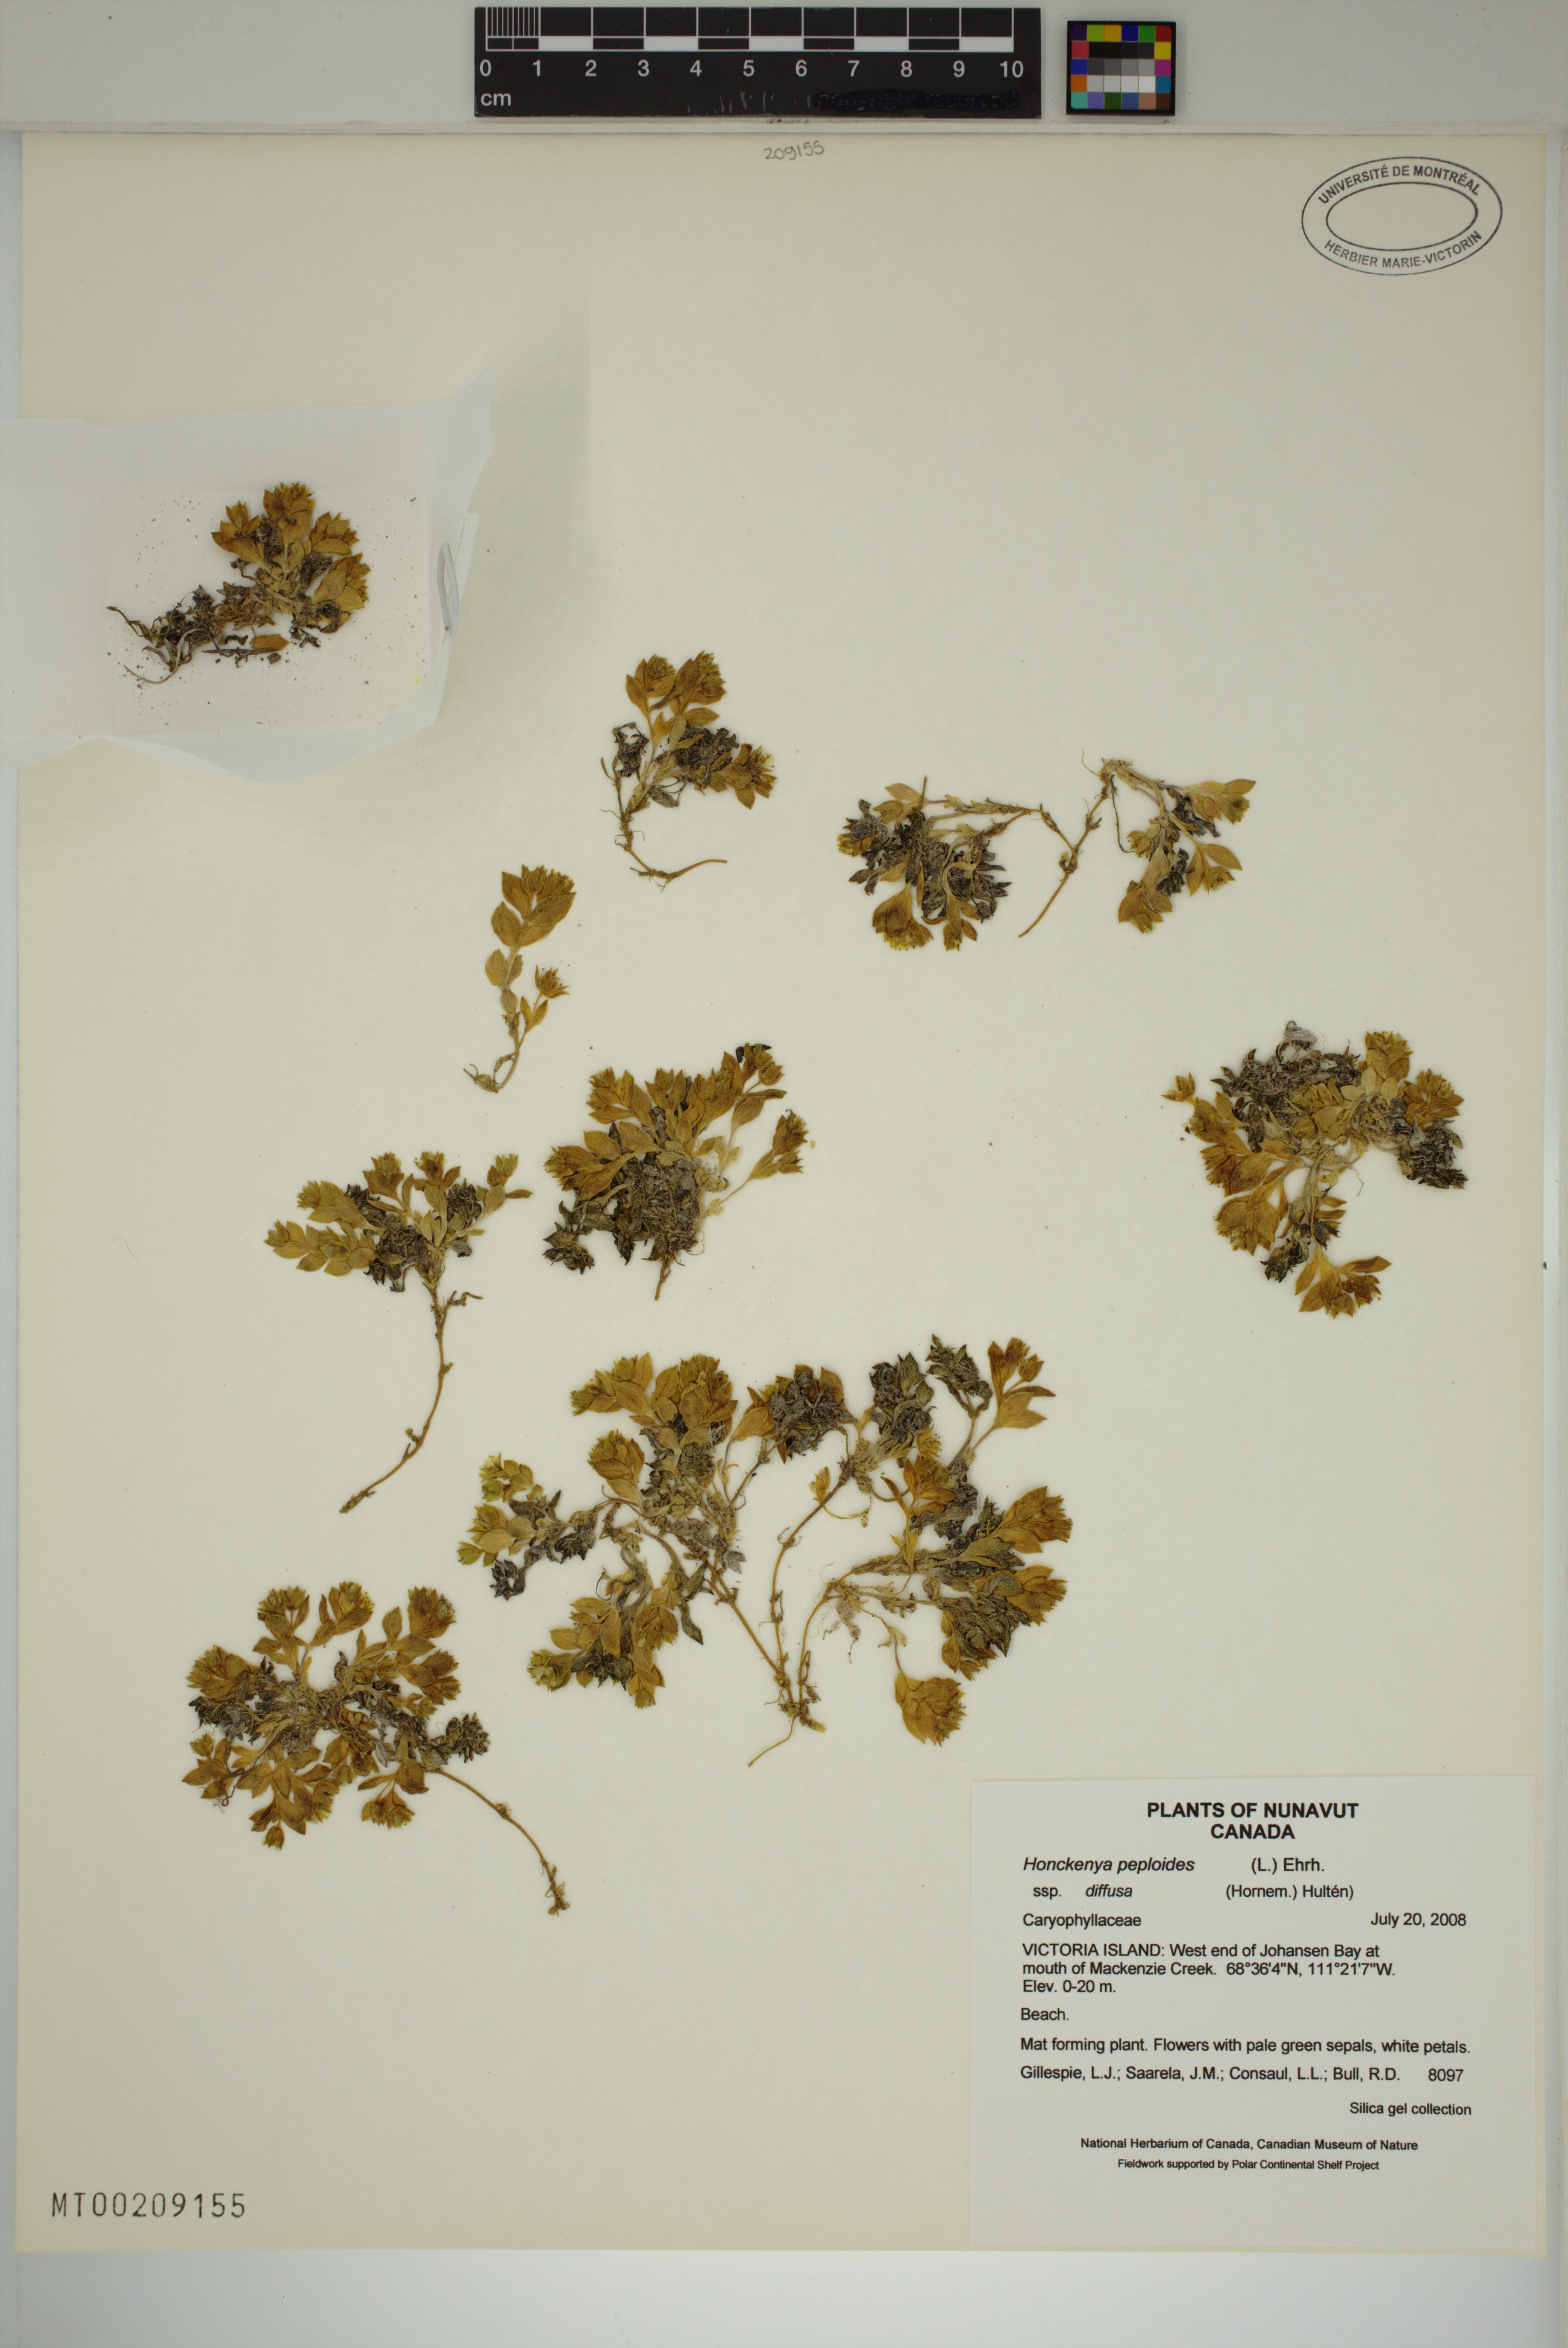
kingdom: Plantae
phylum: Tracheophyta
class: Magnoliopsida
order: Caryophyllales
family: Caryophyllaceae
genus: Honckenya
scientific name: Honckenya peploides
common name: Sea sandwort
